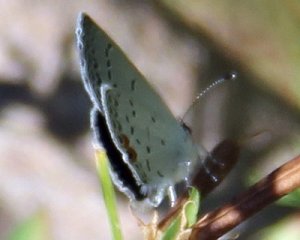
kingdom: Animalia
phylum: Arthropoda
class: Insecta
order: Lepidoptera
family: Lycaenidae
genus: Elkalyce
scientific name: Elkalyce comyntas
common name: Eastern Tailed-Blue
